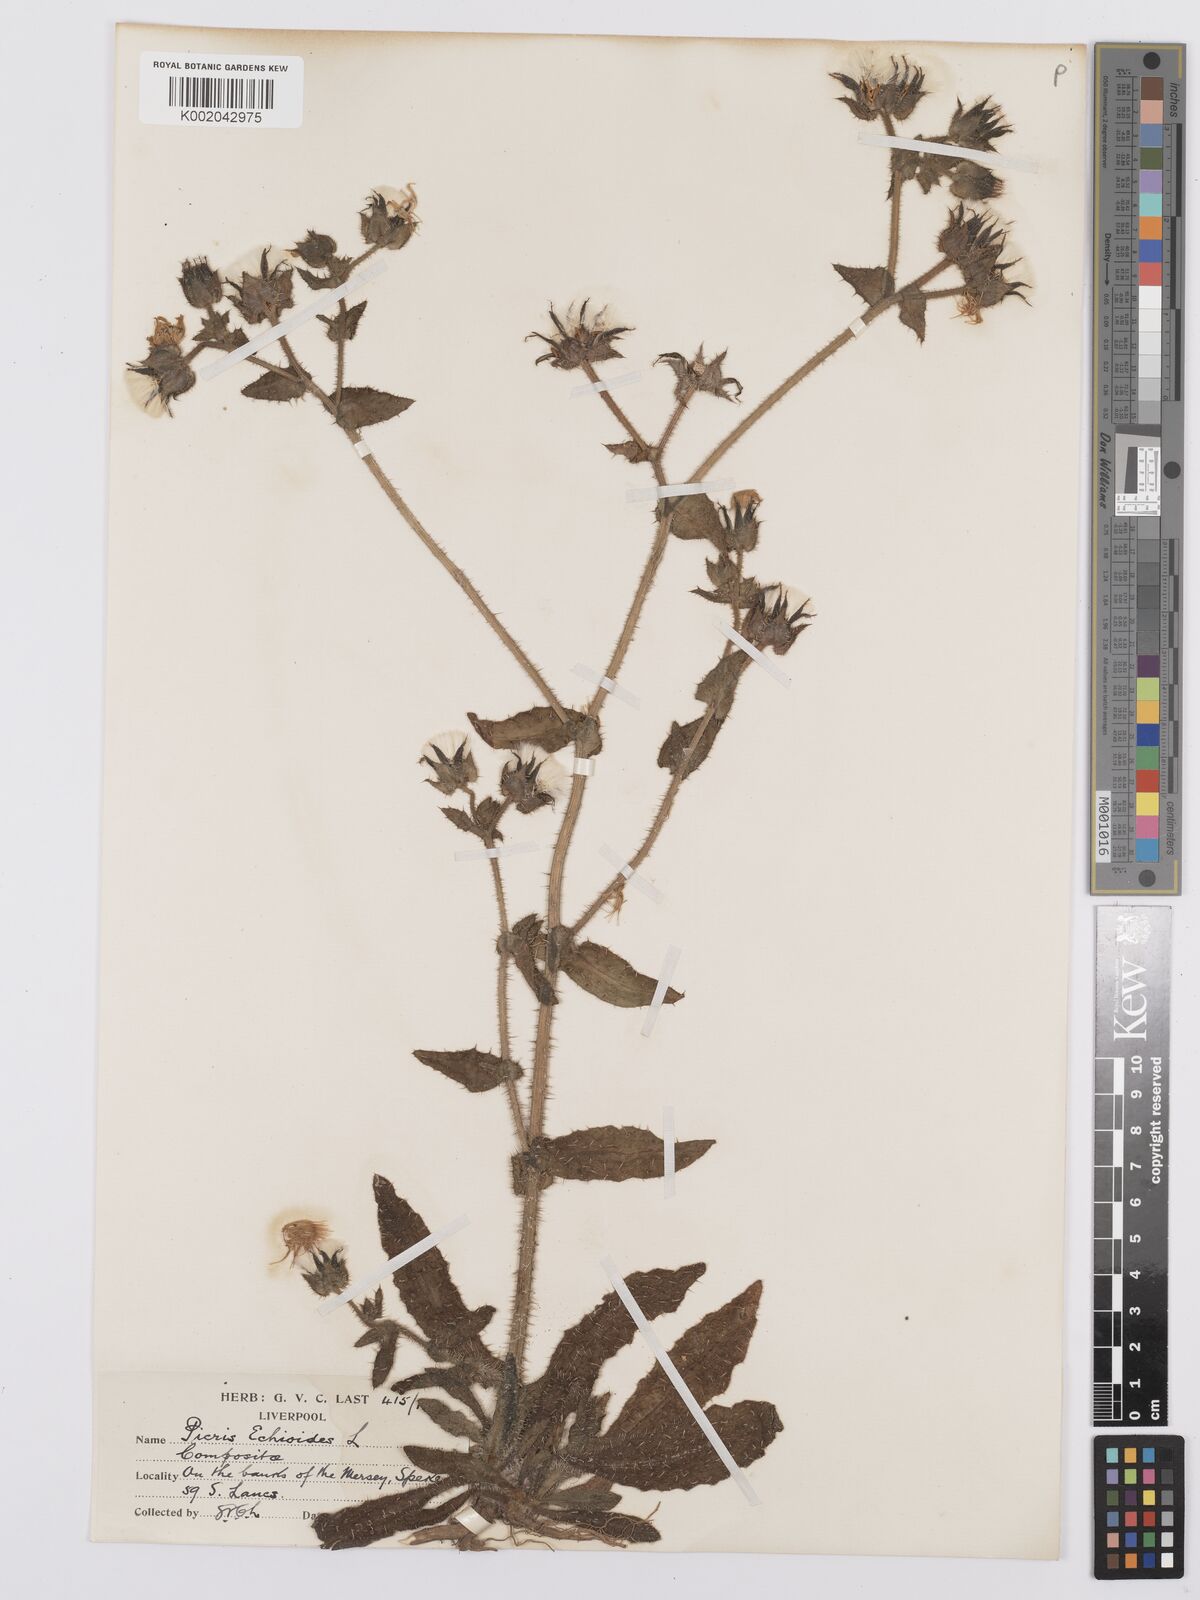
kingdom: Plantae
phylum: Tracheophyta
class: Magnoliopsida
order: Asterales
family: Asteraceae
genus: Helminthotheca
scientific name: Helminthotheca echioides
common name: Ox-tongue
